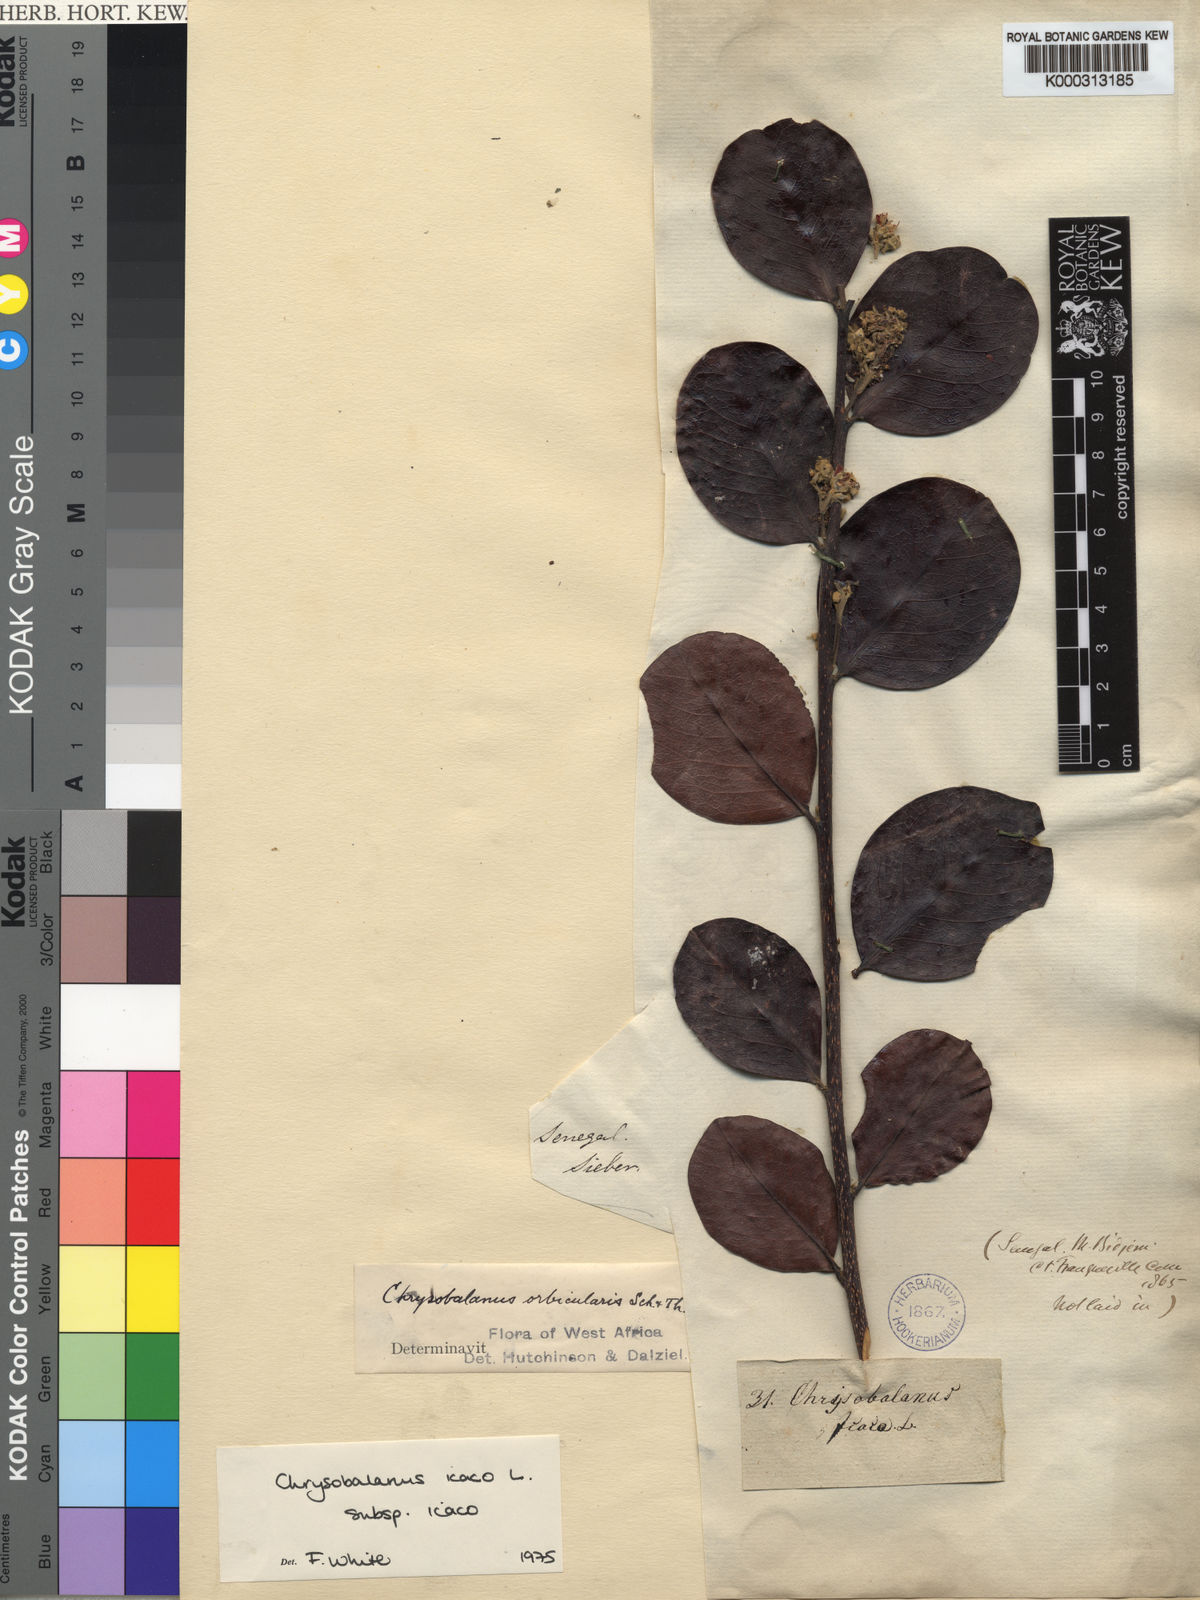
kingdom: Plantae
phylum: Tracheophyta
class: Magnoliopsida
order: Malpighiales
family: Chrysobalanaceae
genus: Chrysobalanus
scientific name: Chrysobalanus icaco
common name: Coco plum
